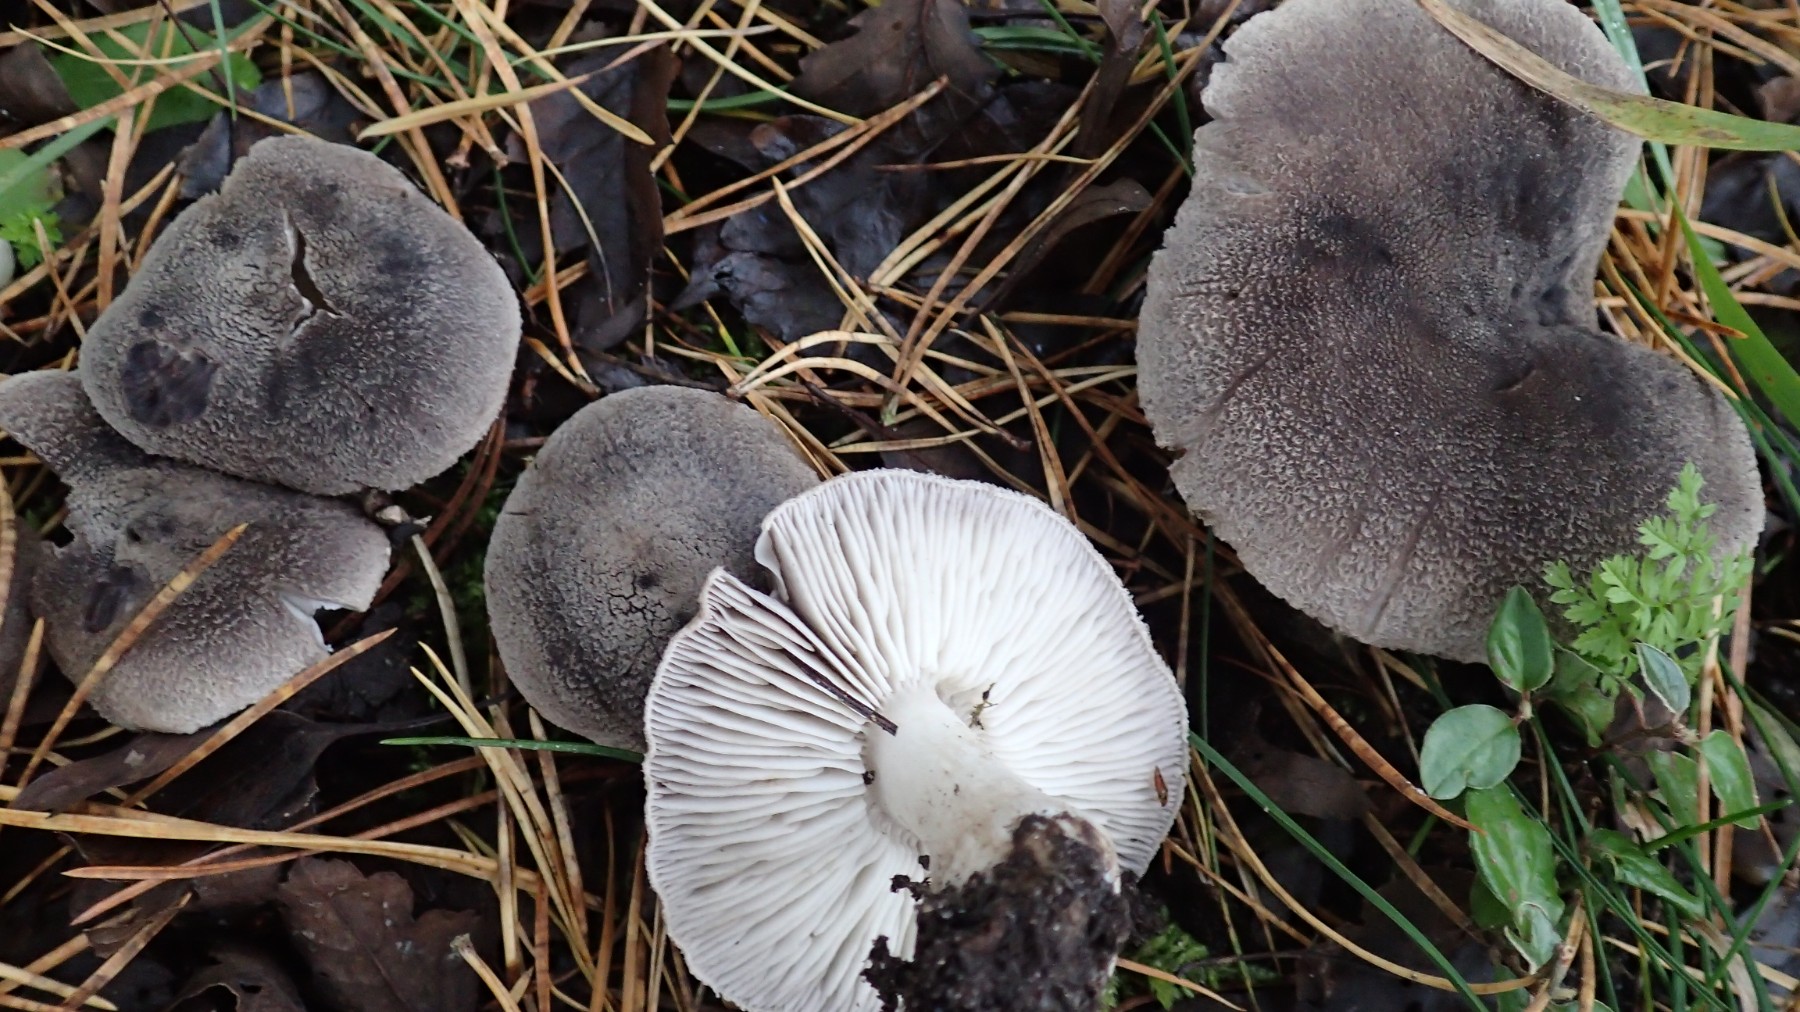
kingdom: Fungi
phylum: Basidiomycota
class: Agaricomycetes
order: Agaricales
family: Tricholomataceae
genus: Tricholoma
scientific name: Tricholoma terreum
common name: jordfarvet ridderhat
